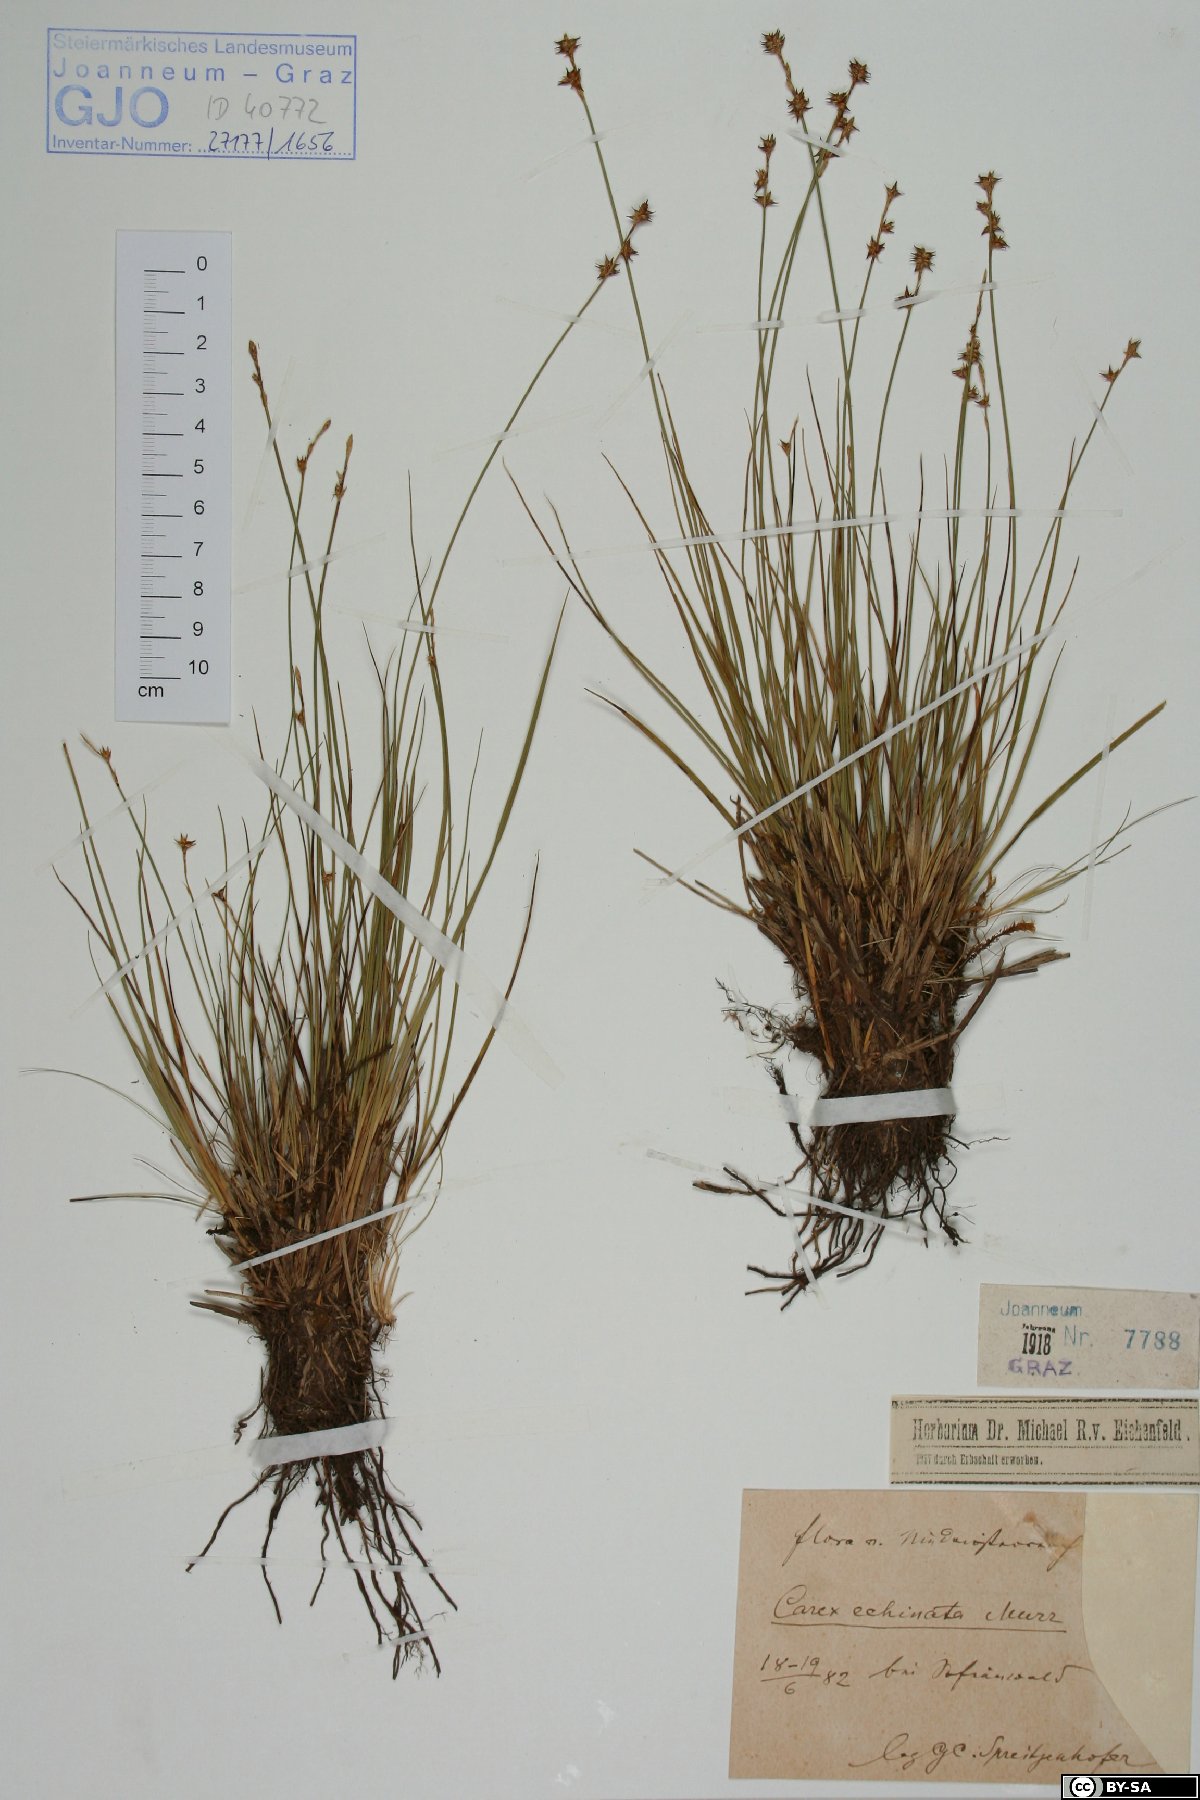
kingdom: Plantae
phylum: Tracheophyta
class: Liliopsida
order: Poales
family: Cyperaceae
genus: Carex
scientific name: Carex echinata
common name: Star sedge
